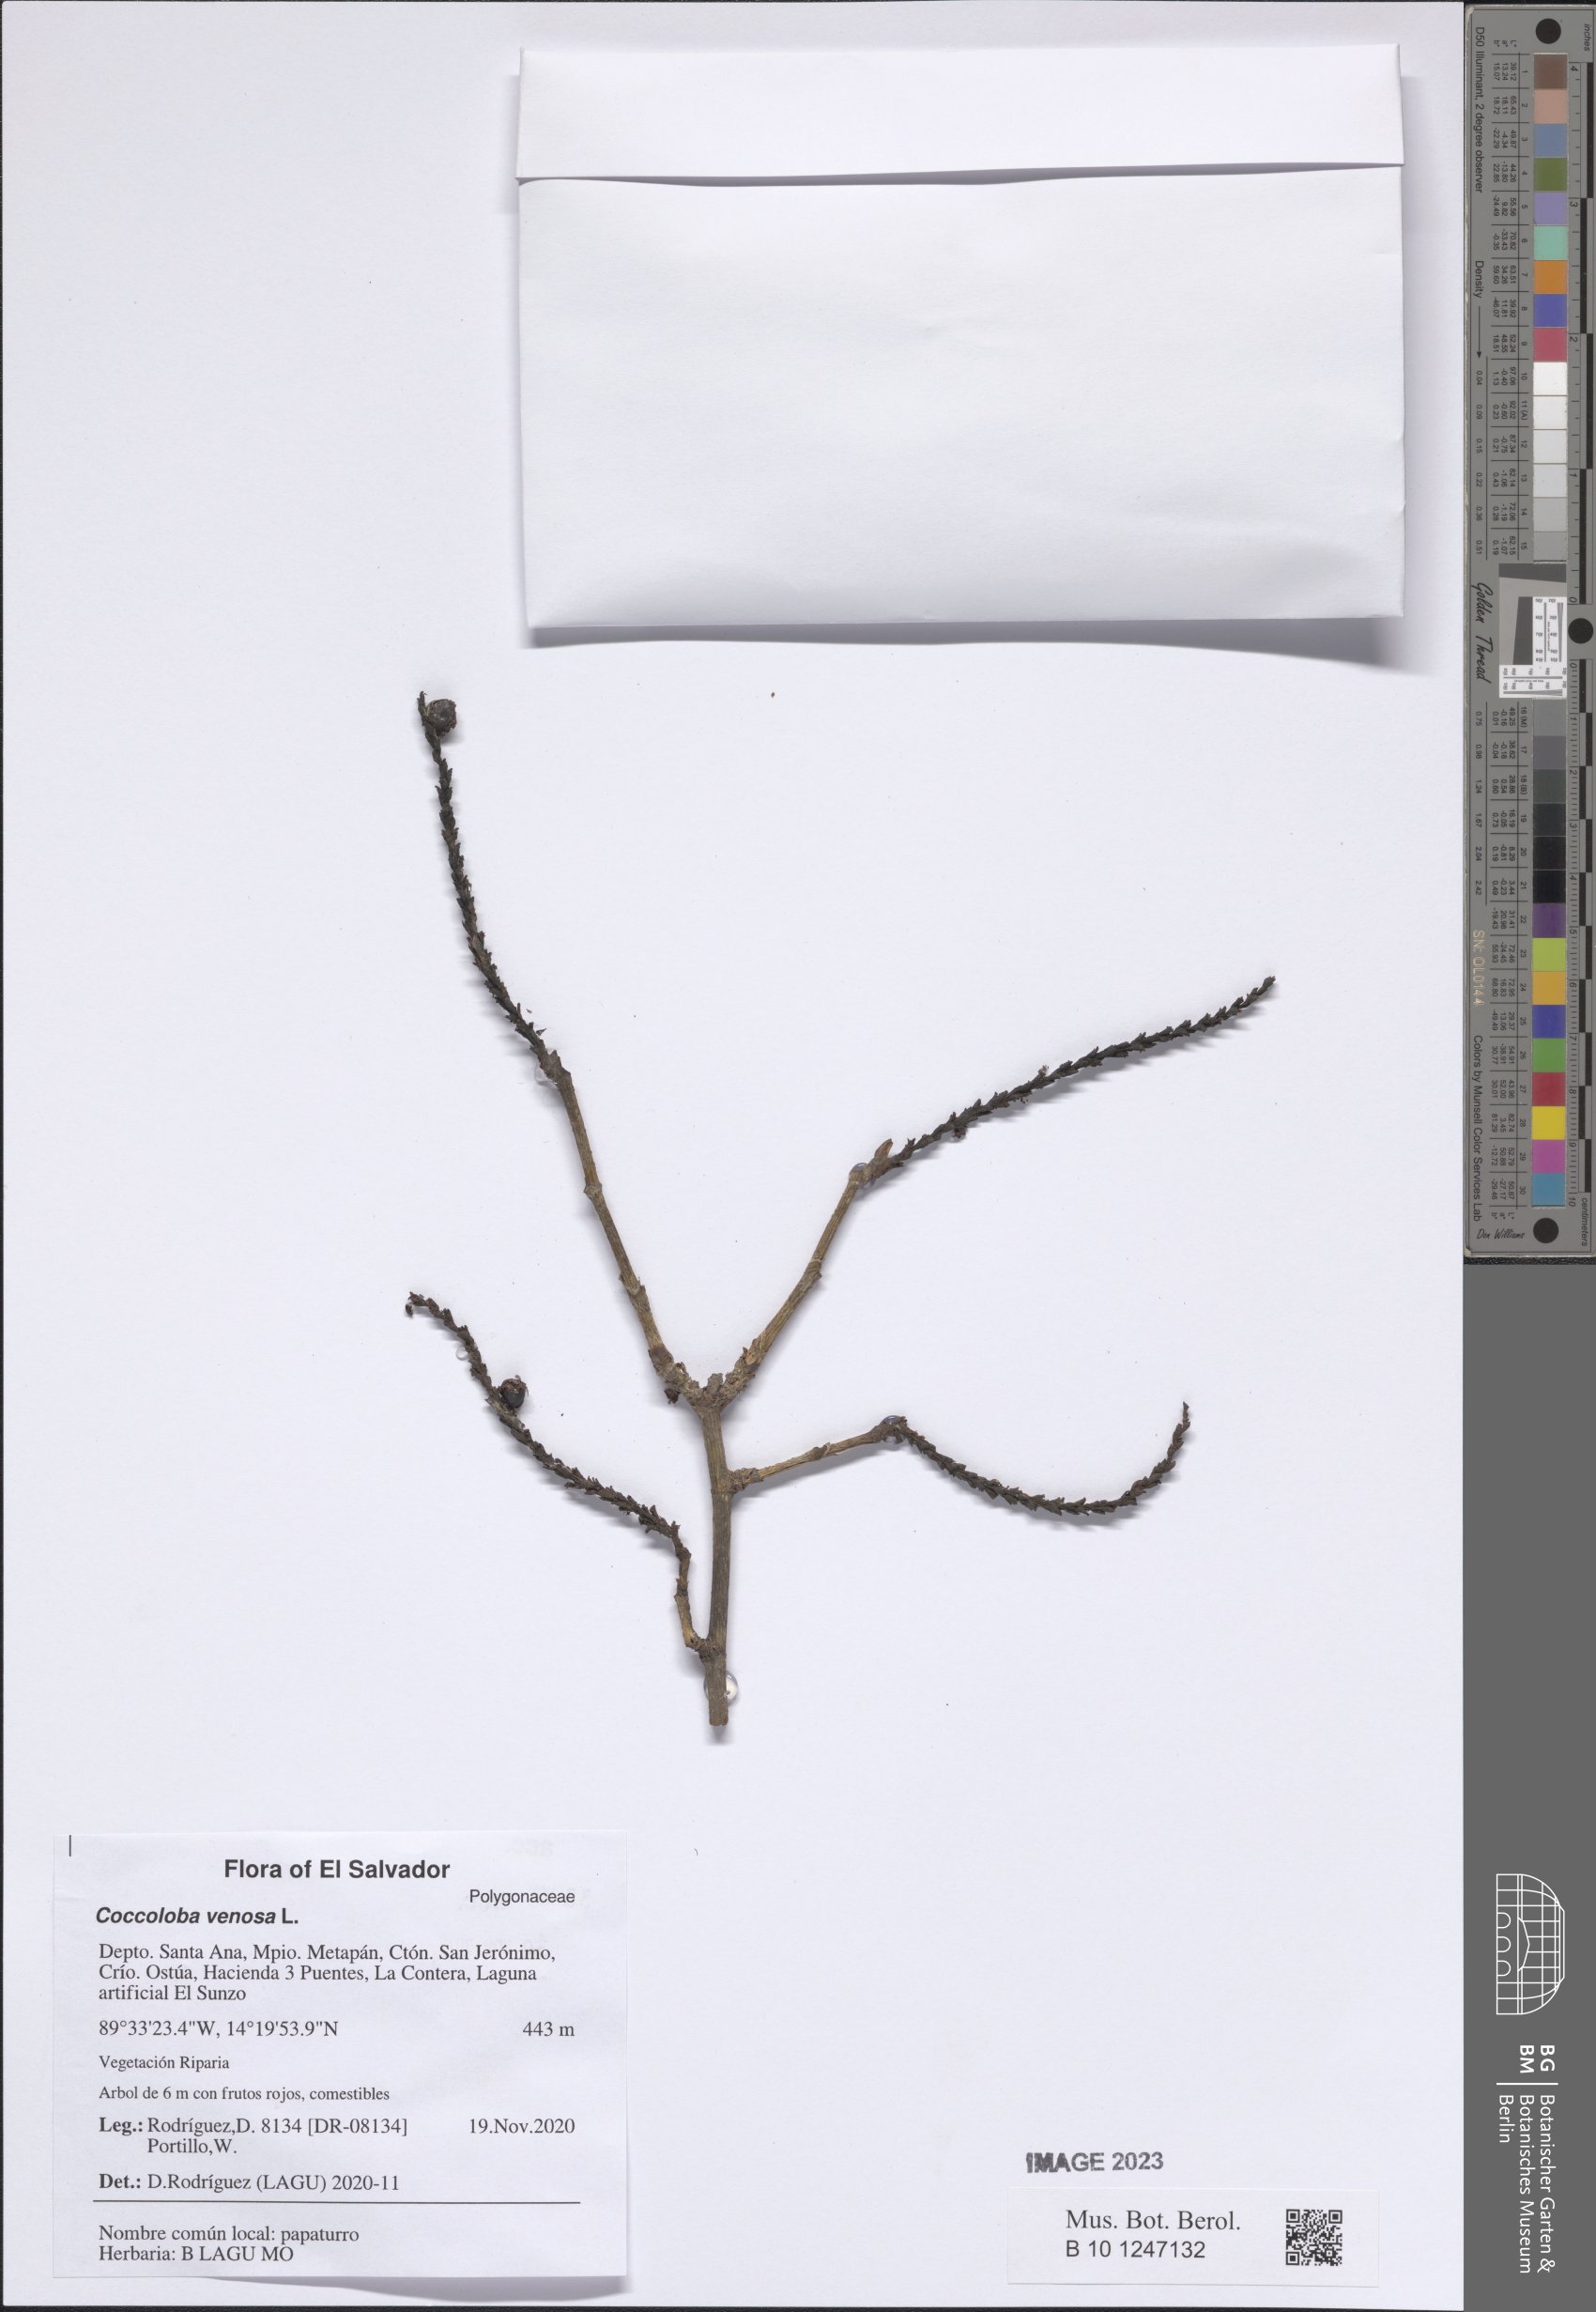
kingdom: Plantae
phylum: Tracheophyta
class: Magnoliopsida
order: Caryophyllales
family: Polygonaceae
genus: Coccoloba
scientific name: Coccoloba venosa
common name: Sugary grape
